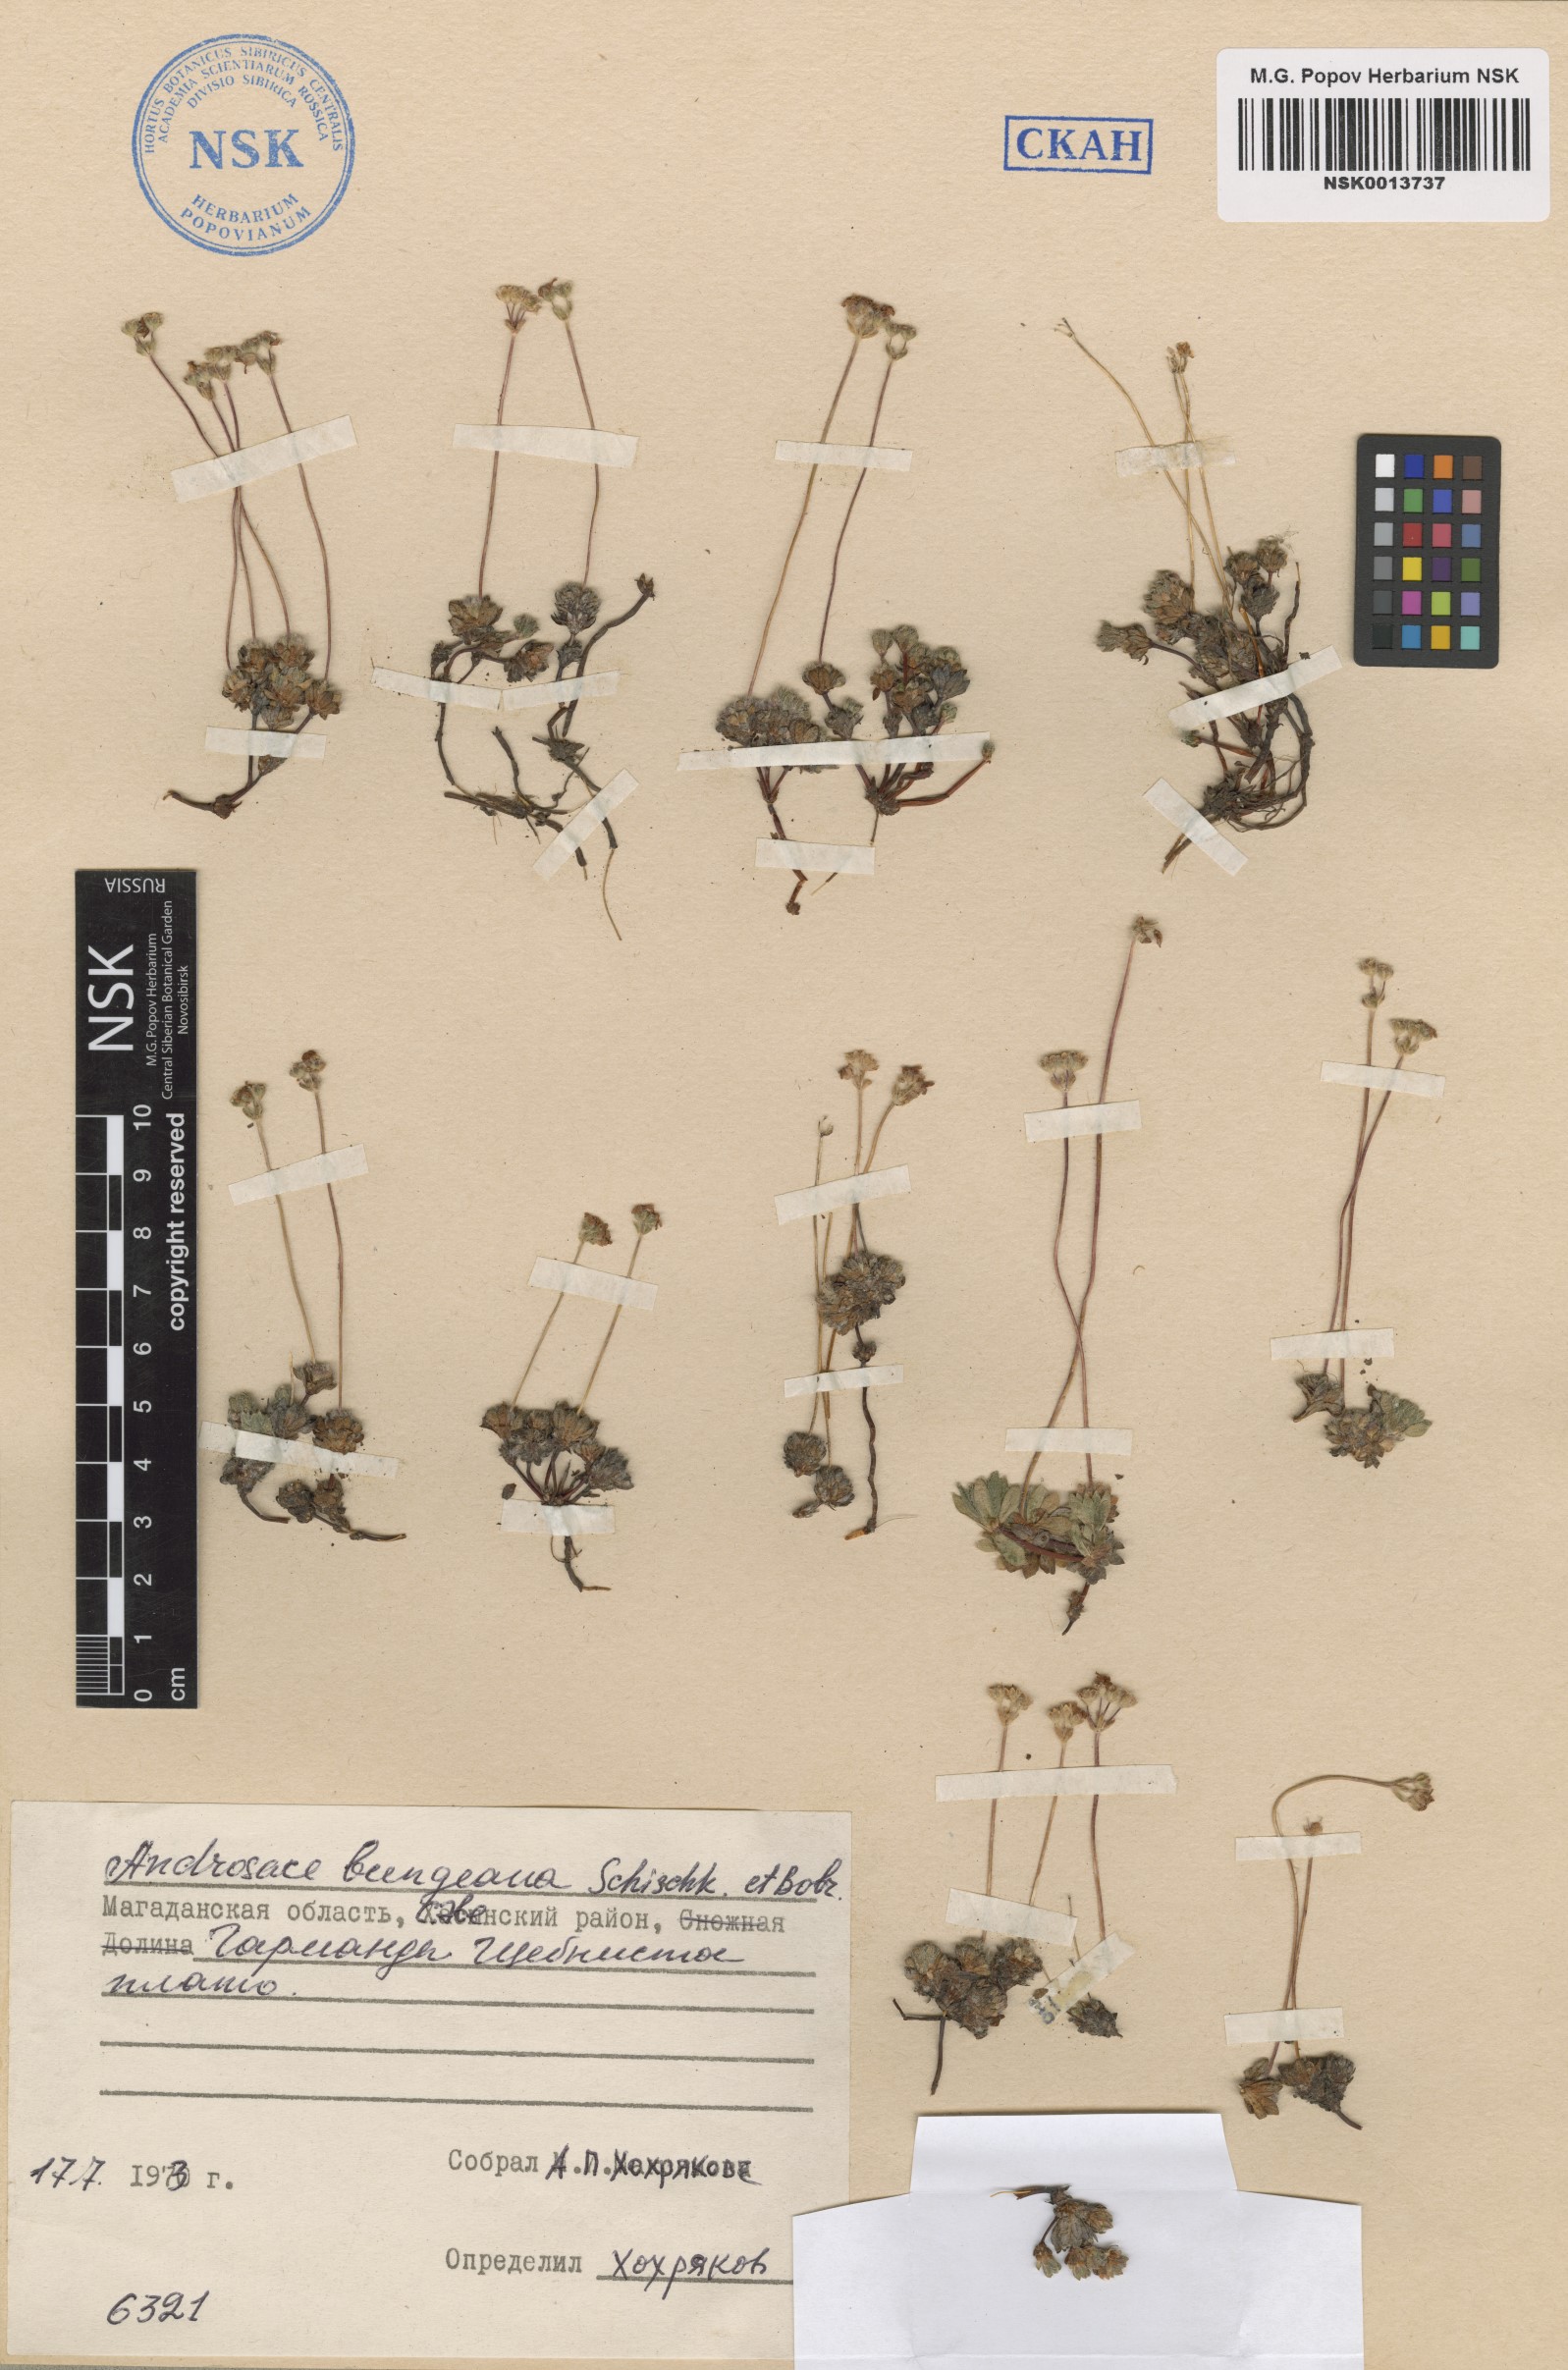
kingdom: Plantae
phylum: Tracheophyta
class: Magnoliopsida
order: Ericales
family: Primulaceae
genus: Androsace
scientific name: Androsace bungeana
